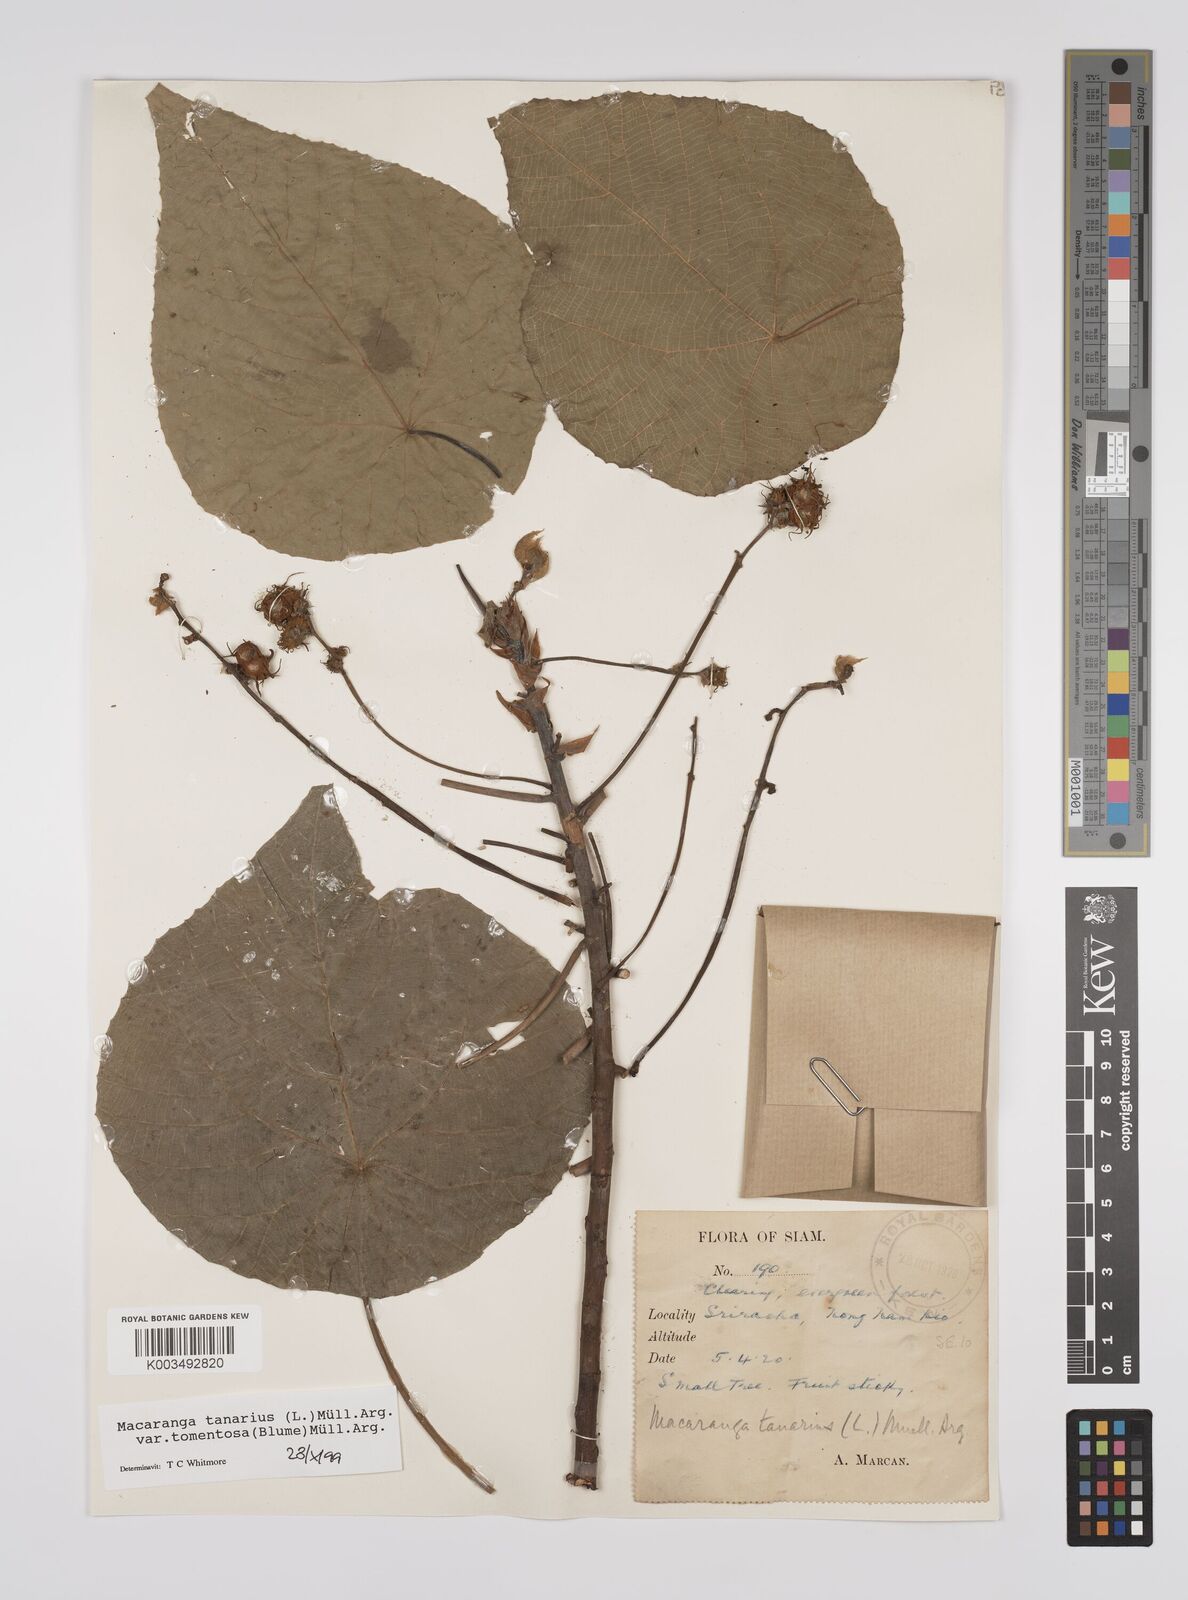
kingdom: Plantae
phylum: Tracheophyta
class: Magnoliopsida
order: Malpighiales
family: Euphorbiaceae
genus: Macaranga
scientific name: Macaranga tanarius
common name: Parasol leaf tree
